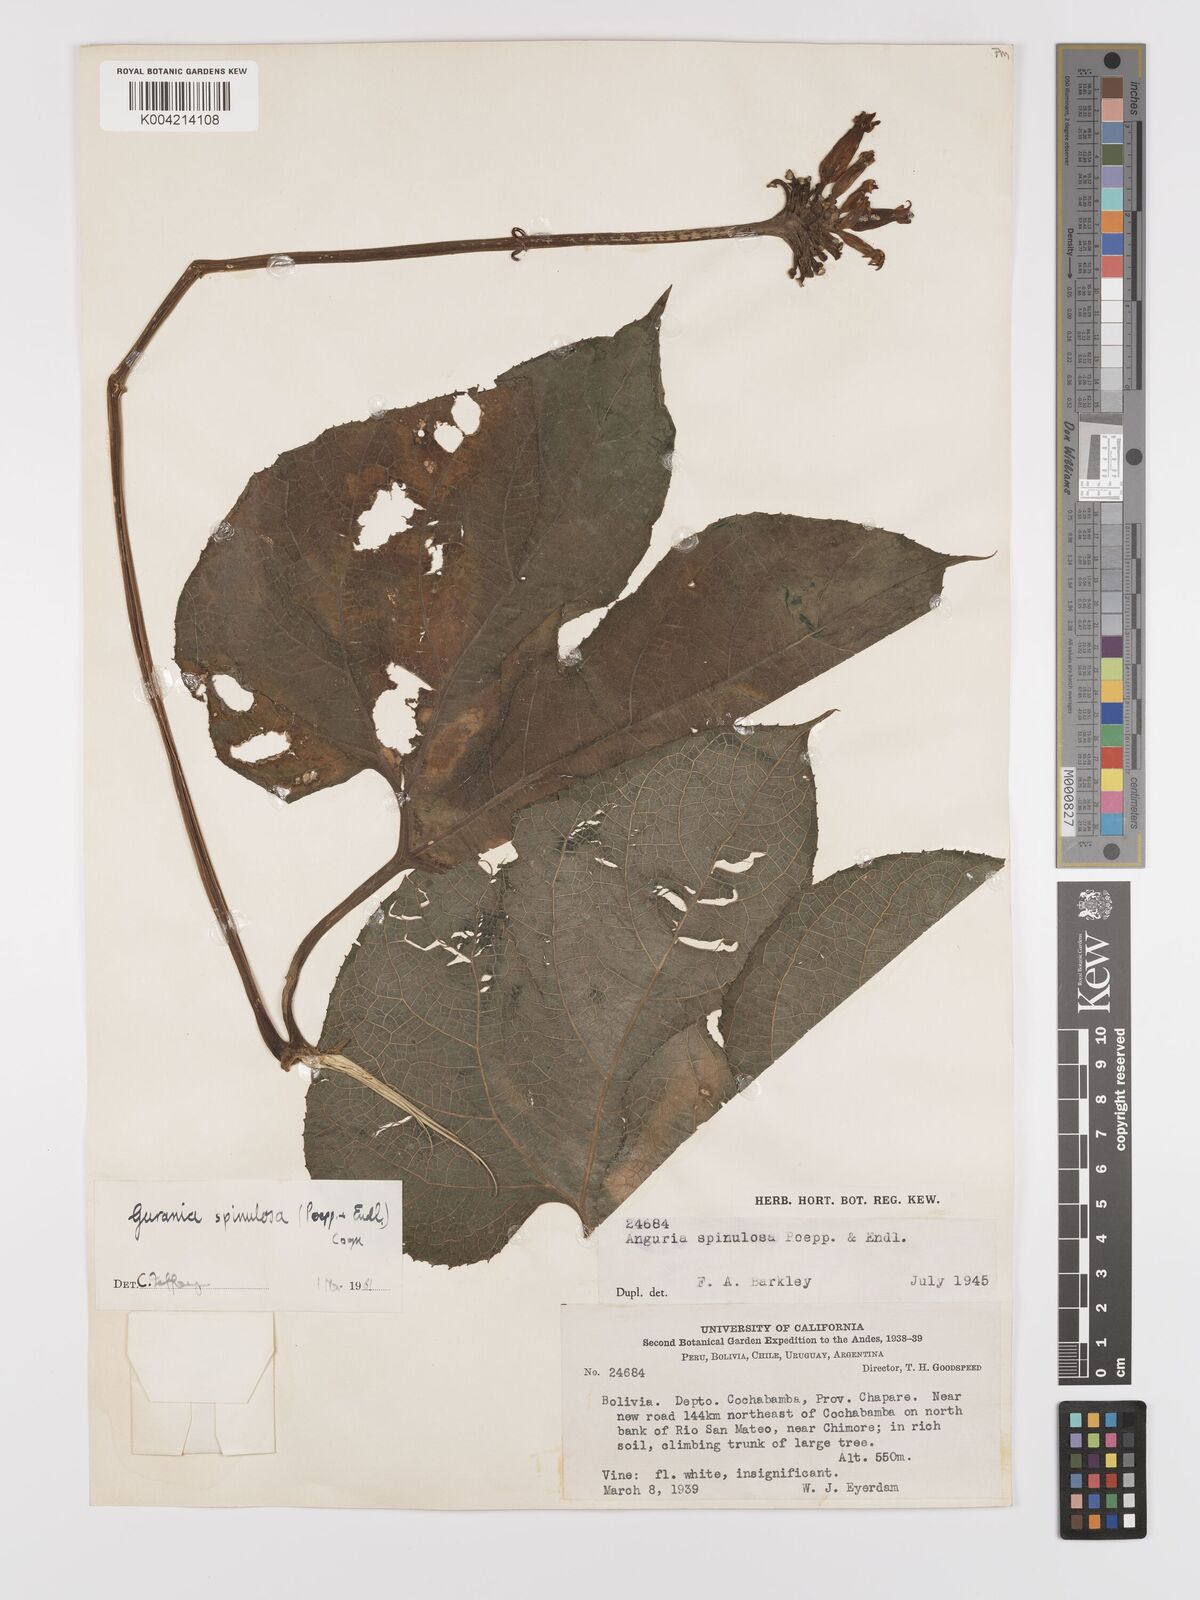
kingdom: Plantae
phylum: Tracheophyta
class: Magnoliopsida
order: Cucurbitales
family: Cucurbitaceae
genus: Gurania
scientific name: Gurania lobata
